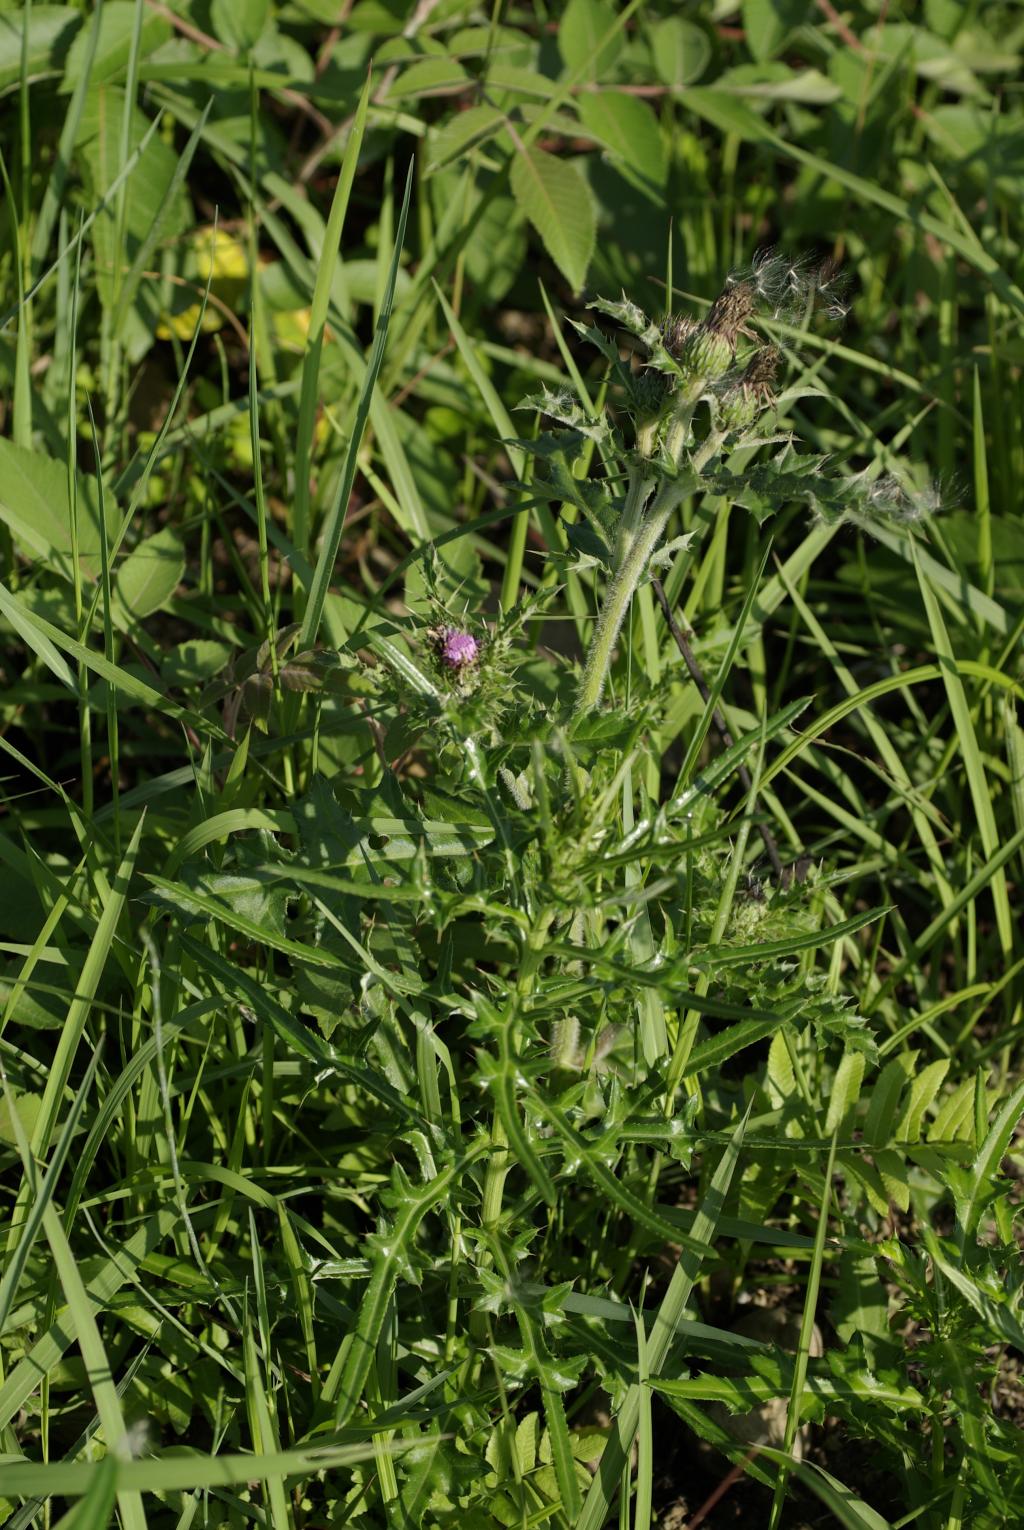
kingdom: Plantae
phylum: Tracheophyta
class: Magnoliopsida
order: Asterales
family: Asteraceae
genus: Cirsium
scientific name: Cirsium lineare
